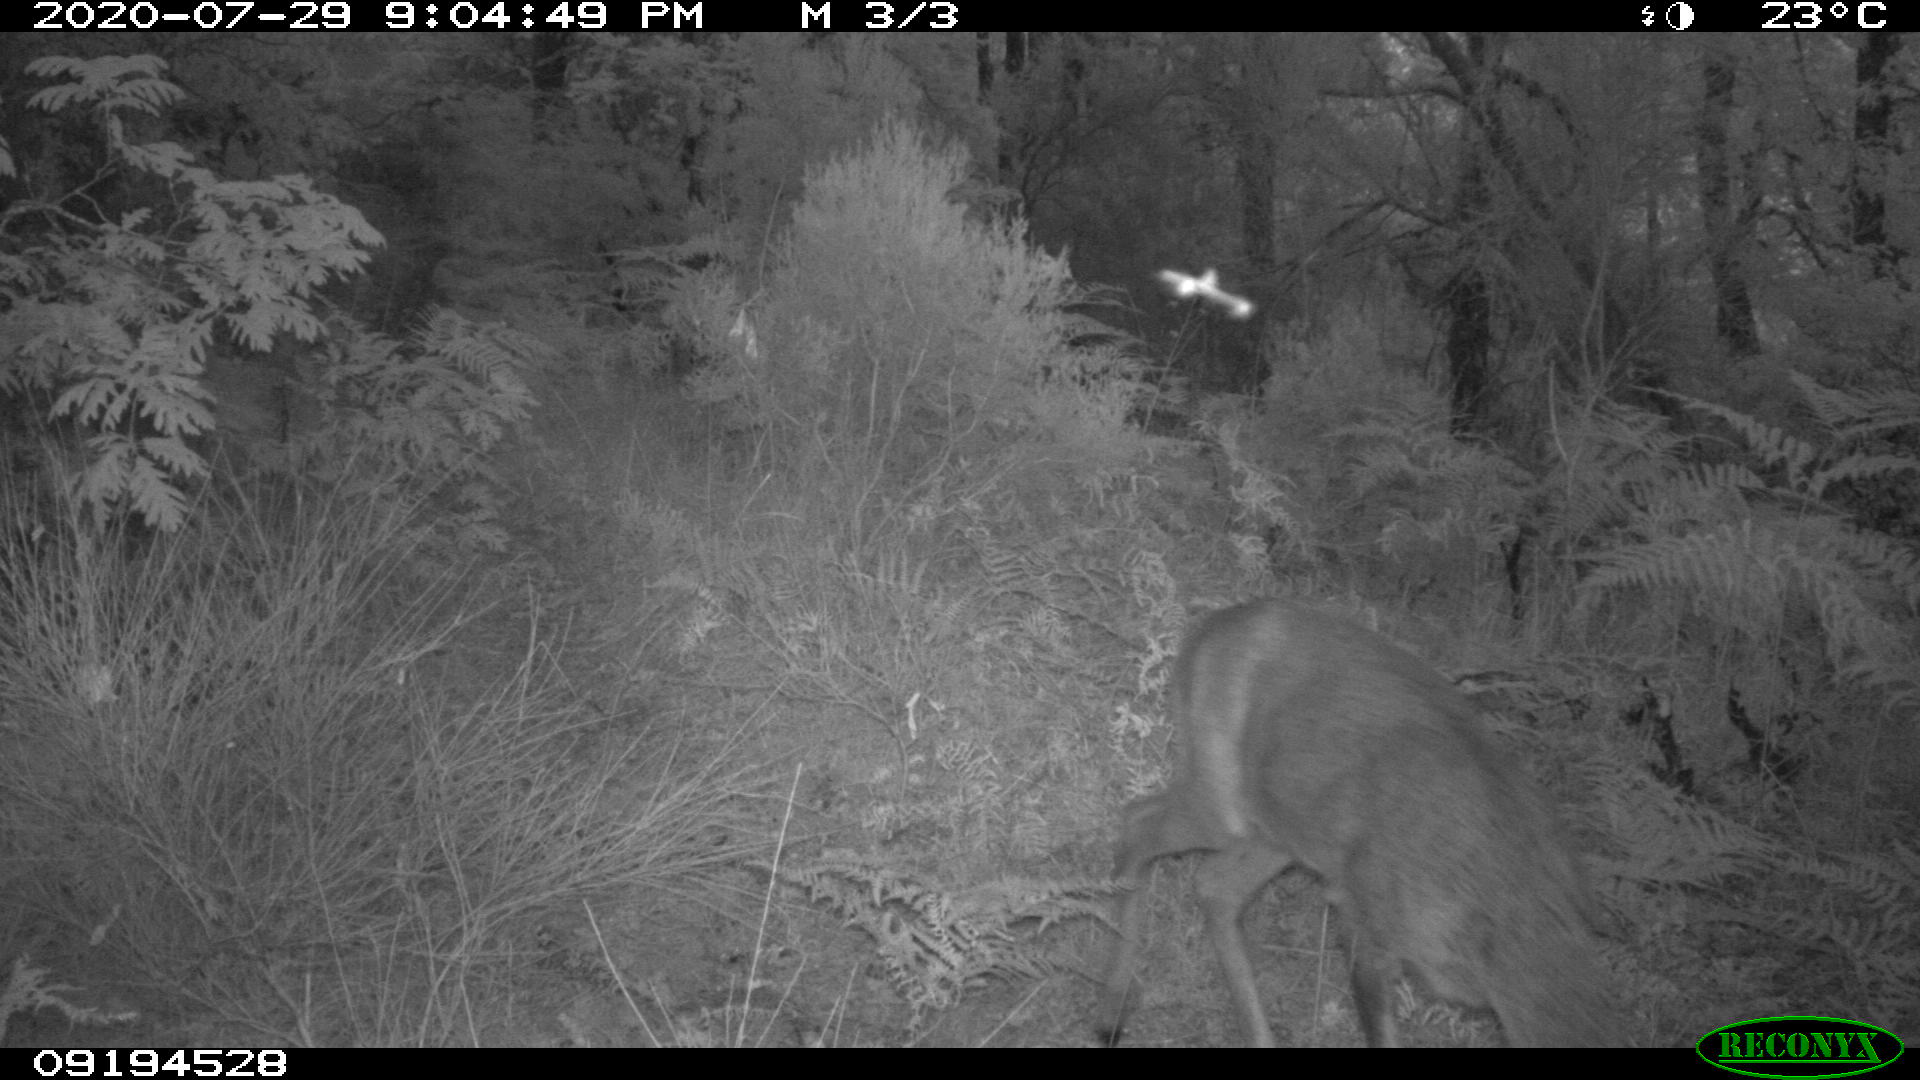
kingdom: Animalia
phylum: Chordata
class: Mammalia
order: Artiodactyla
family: Cervidae
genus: Capreolus
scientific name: Capreolus capreolus
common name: Western roe deer
